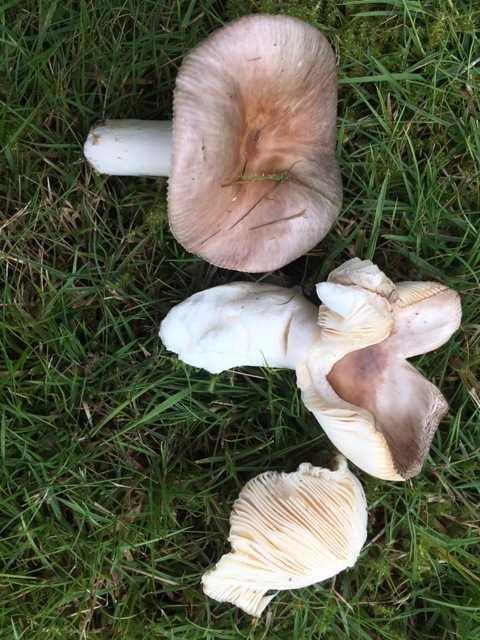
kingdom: Fungi
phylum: Basidiomycota
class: Agaricomycetes
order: Russulales
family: Russulaceae
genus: Russula
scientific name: Russula ionochlora
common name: violetgrøn skørhat
